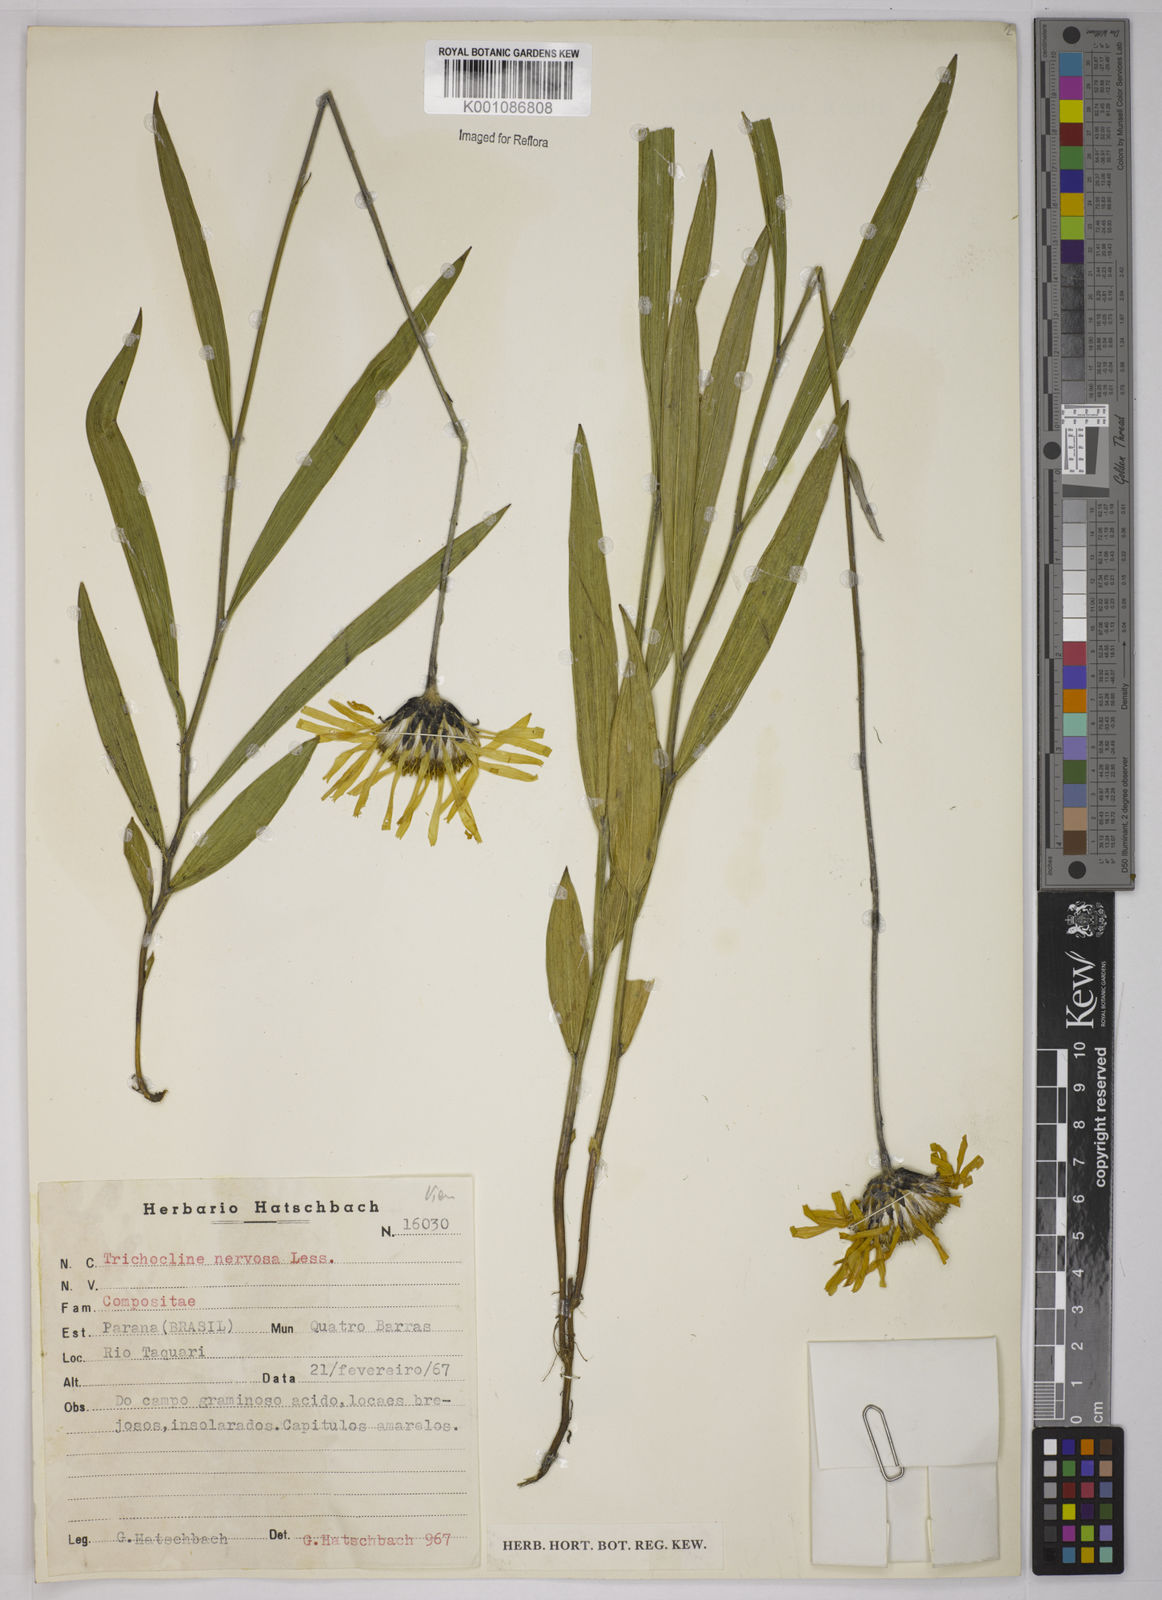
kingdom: Plantae
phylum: Tracheophyta
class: Magnoliopsida
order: Asterales
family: Asteraceae
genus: Lulia
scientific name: Lulia nervosa
